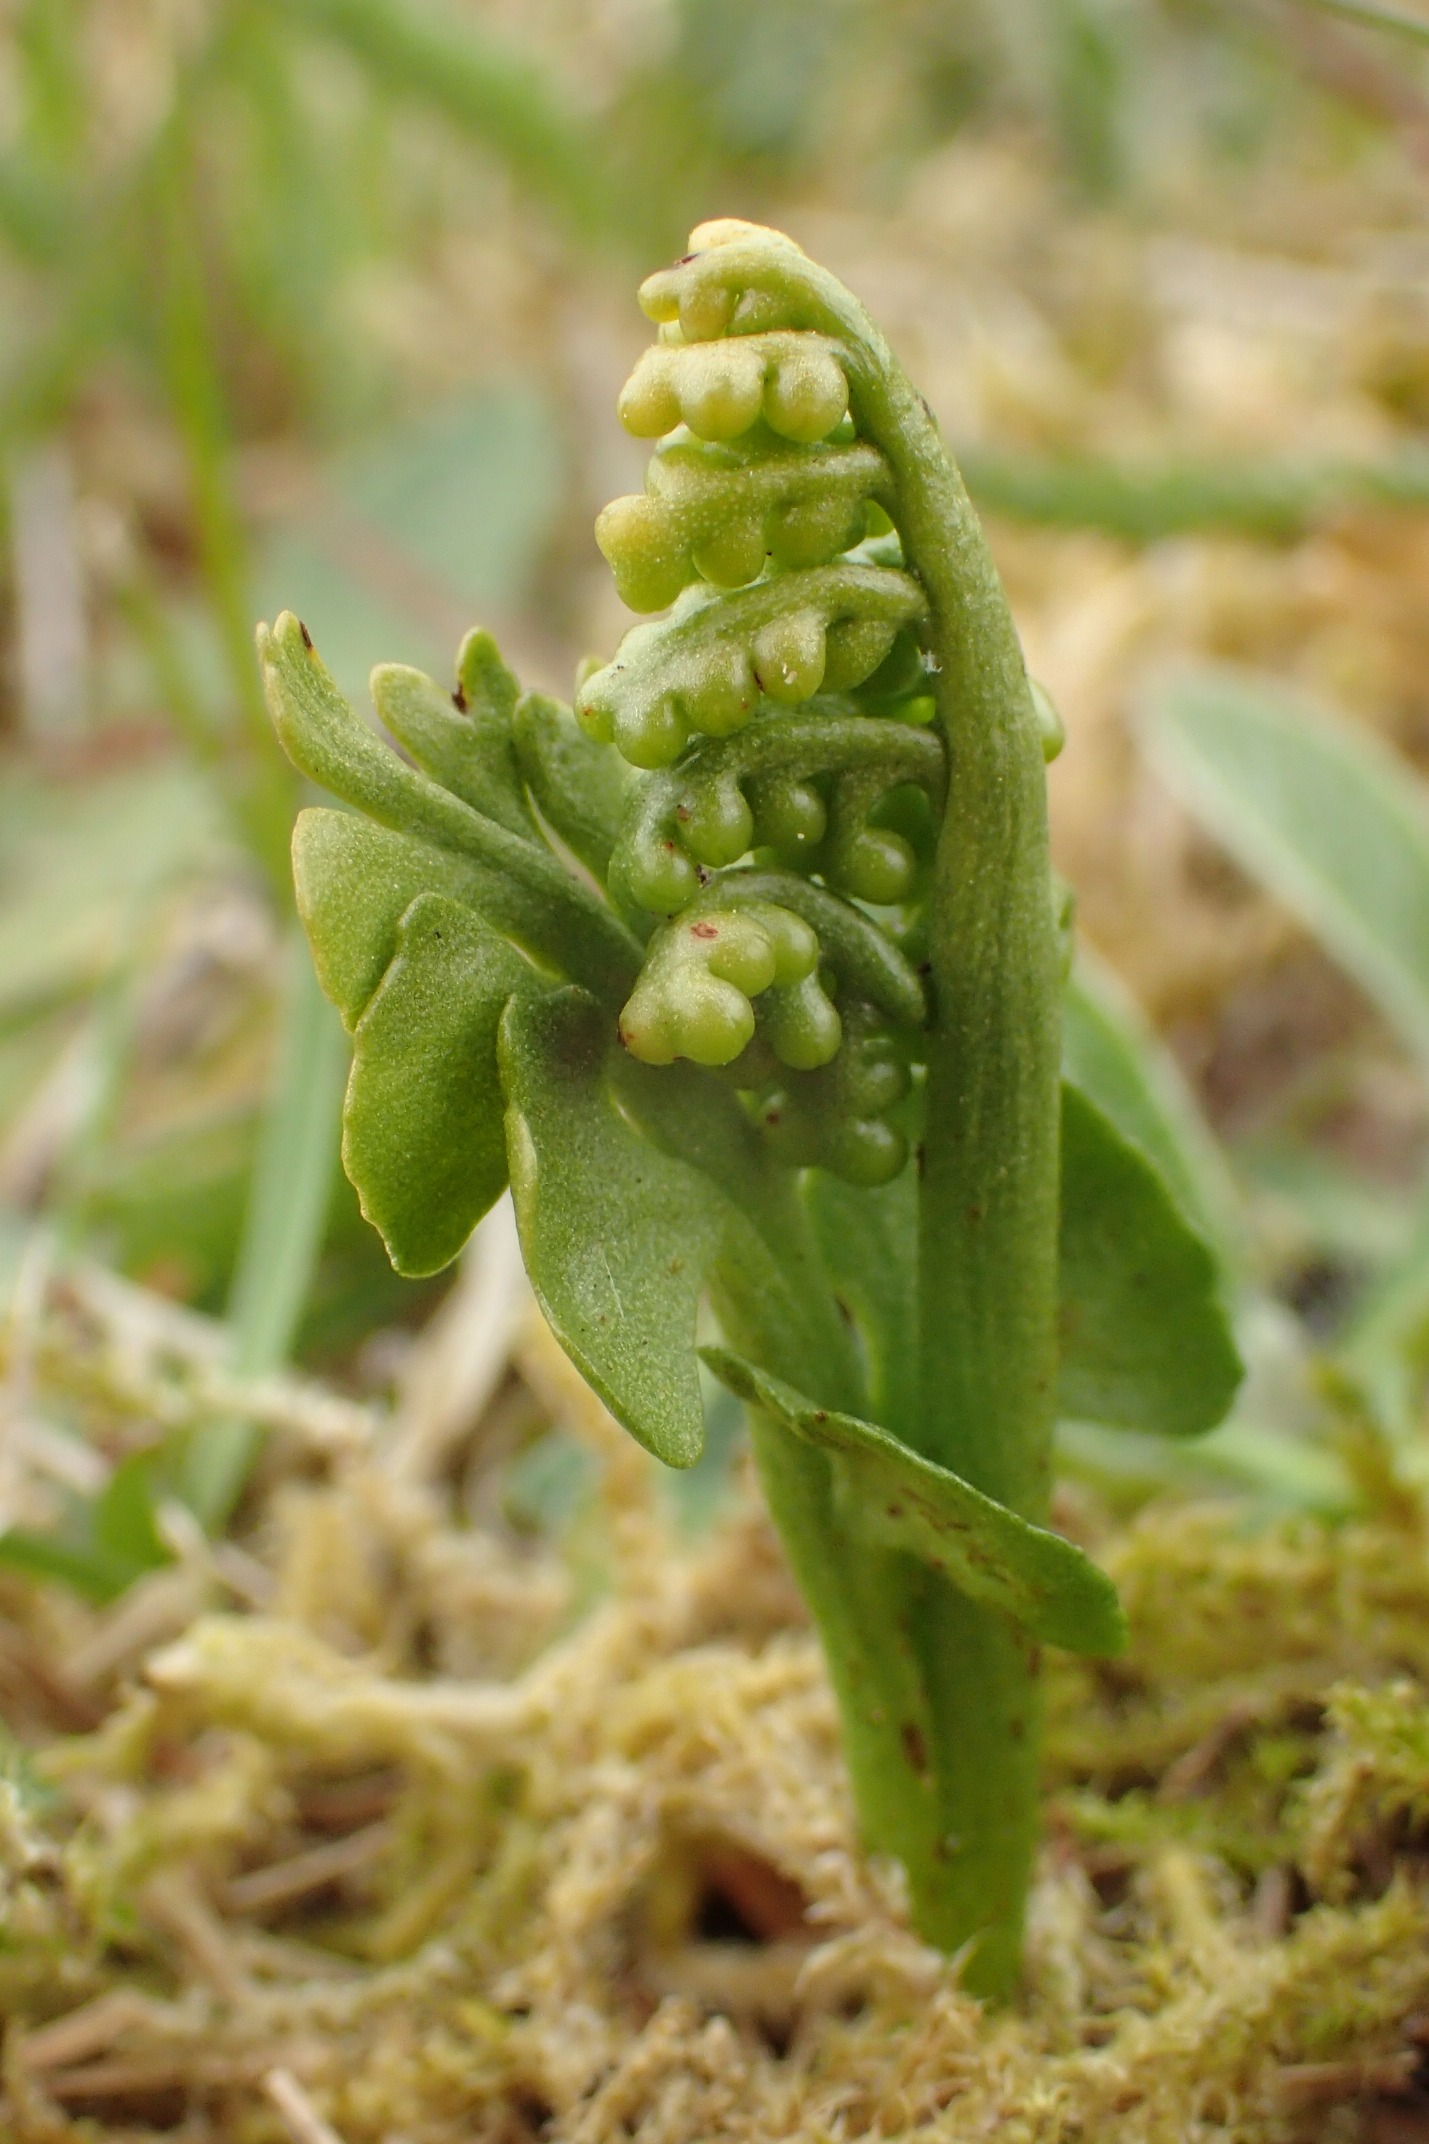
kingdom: Plantae
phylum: Tracheophyta
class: Polypodiopsida
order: Ophioglossales
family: Ophioglossaceae
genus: Botrychium
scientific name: Botrychium lunaria
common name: Almindelig månerude
